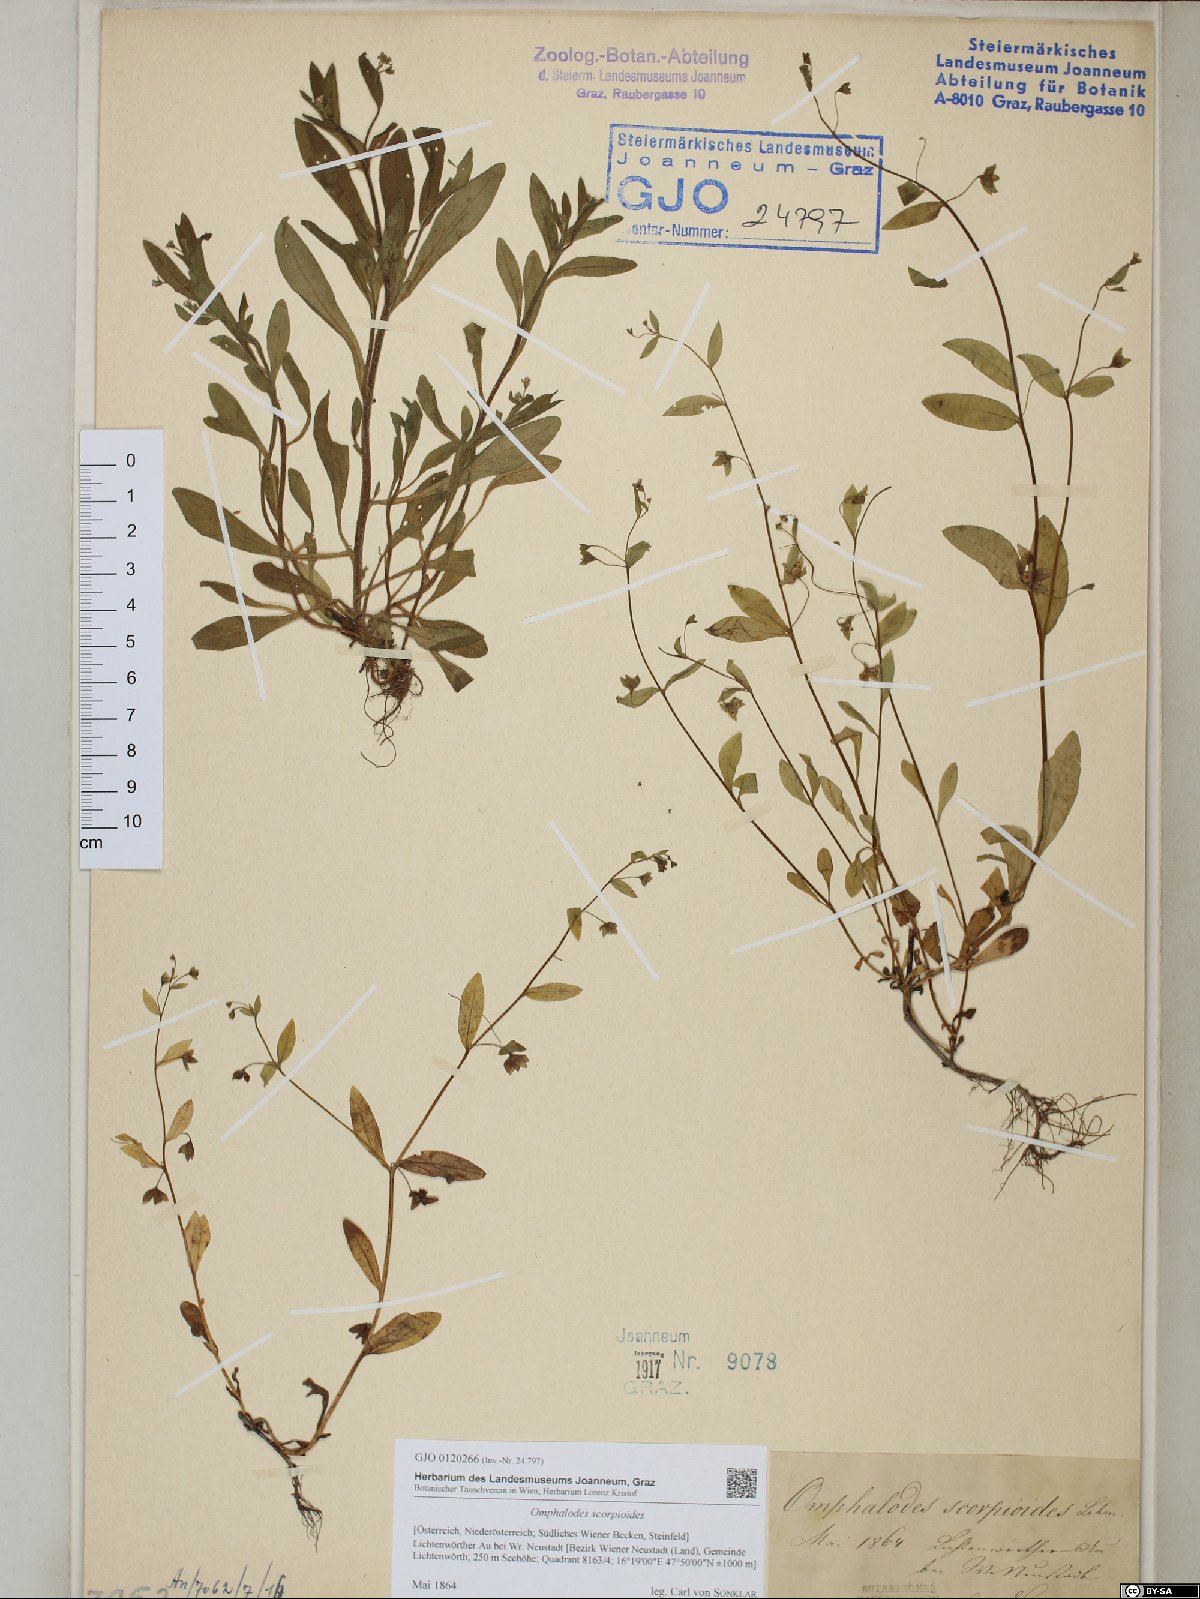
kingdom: Plantae
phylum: Tracheophyta
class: Magnoliopsida
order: Boraginales
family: Boraginaceae
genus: Memoremea
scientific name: Memoremea scorpioides
